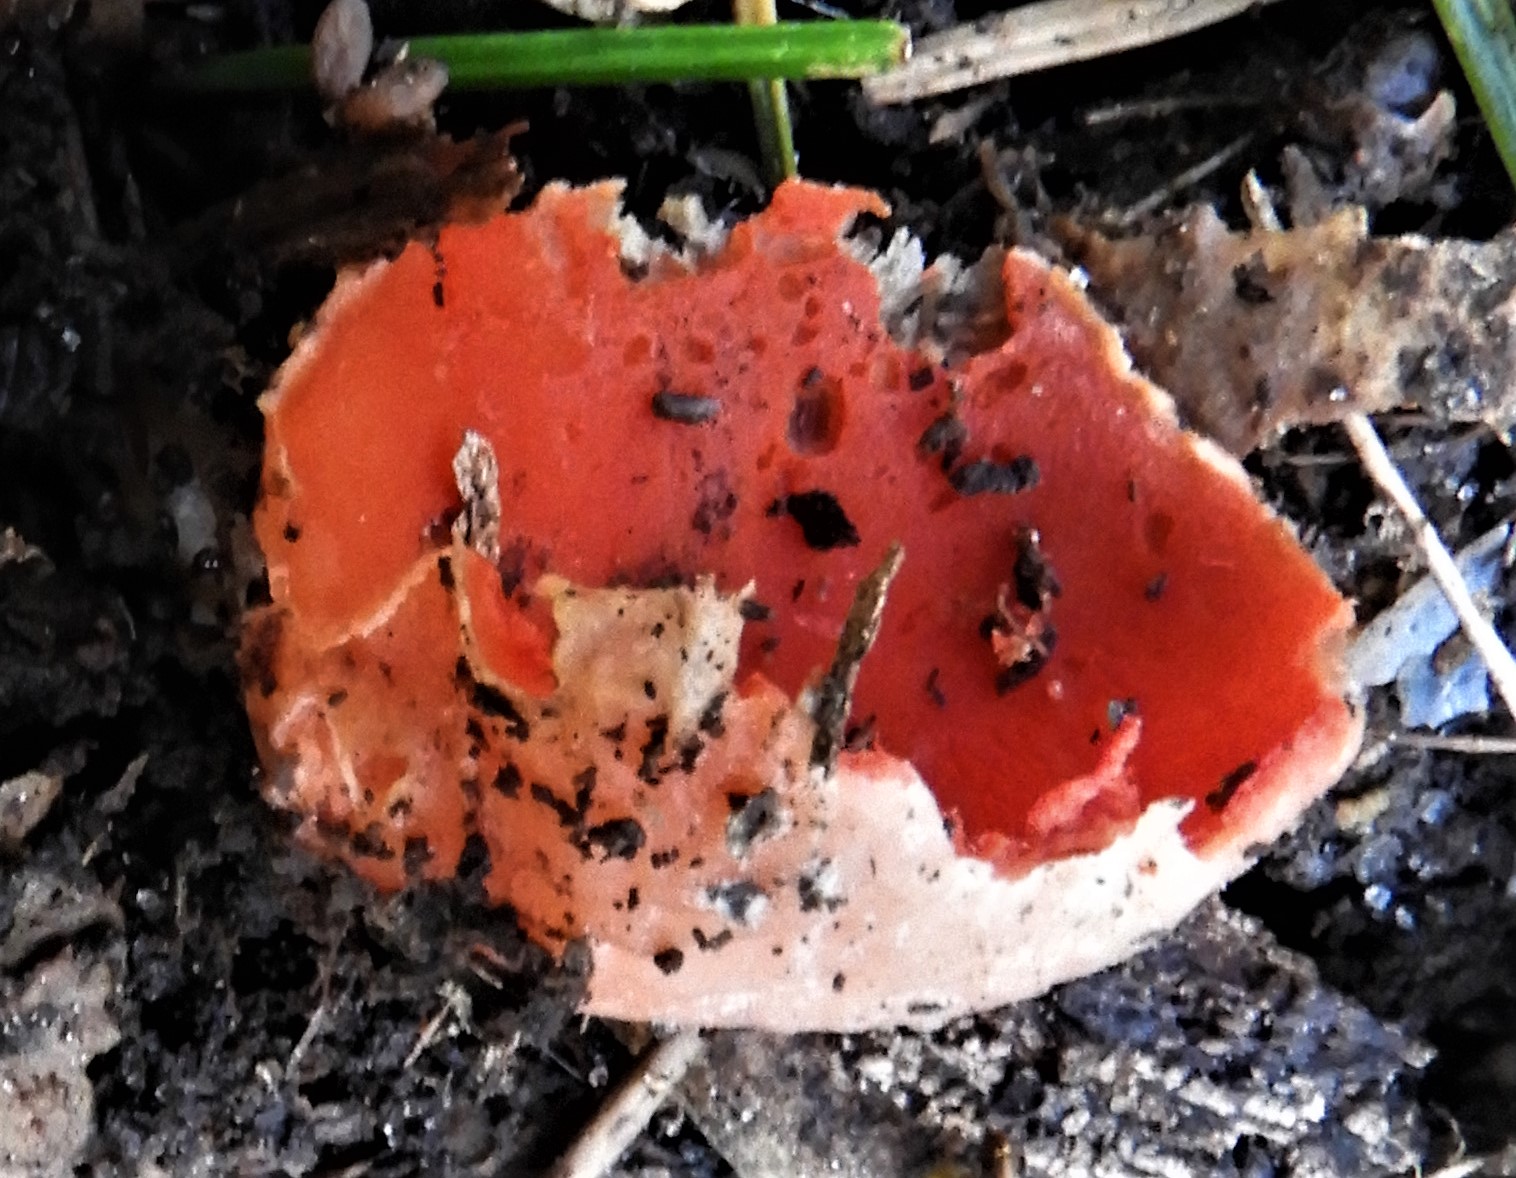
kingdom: Fungi
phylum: Ascomycota
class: Pezizomycetes
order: Pezizales
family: Sarcoscyphaceae
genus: Sarcoscypha
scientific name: Sarcoscypha austriaca
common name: krølhåret pragtbæger
